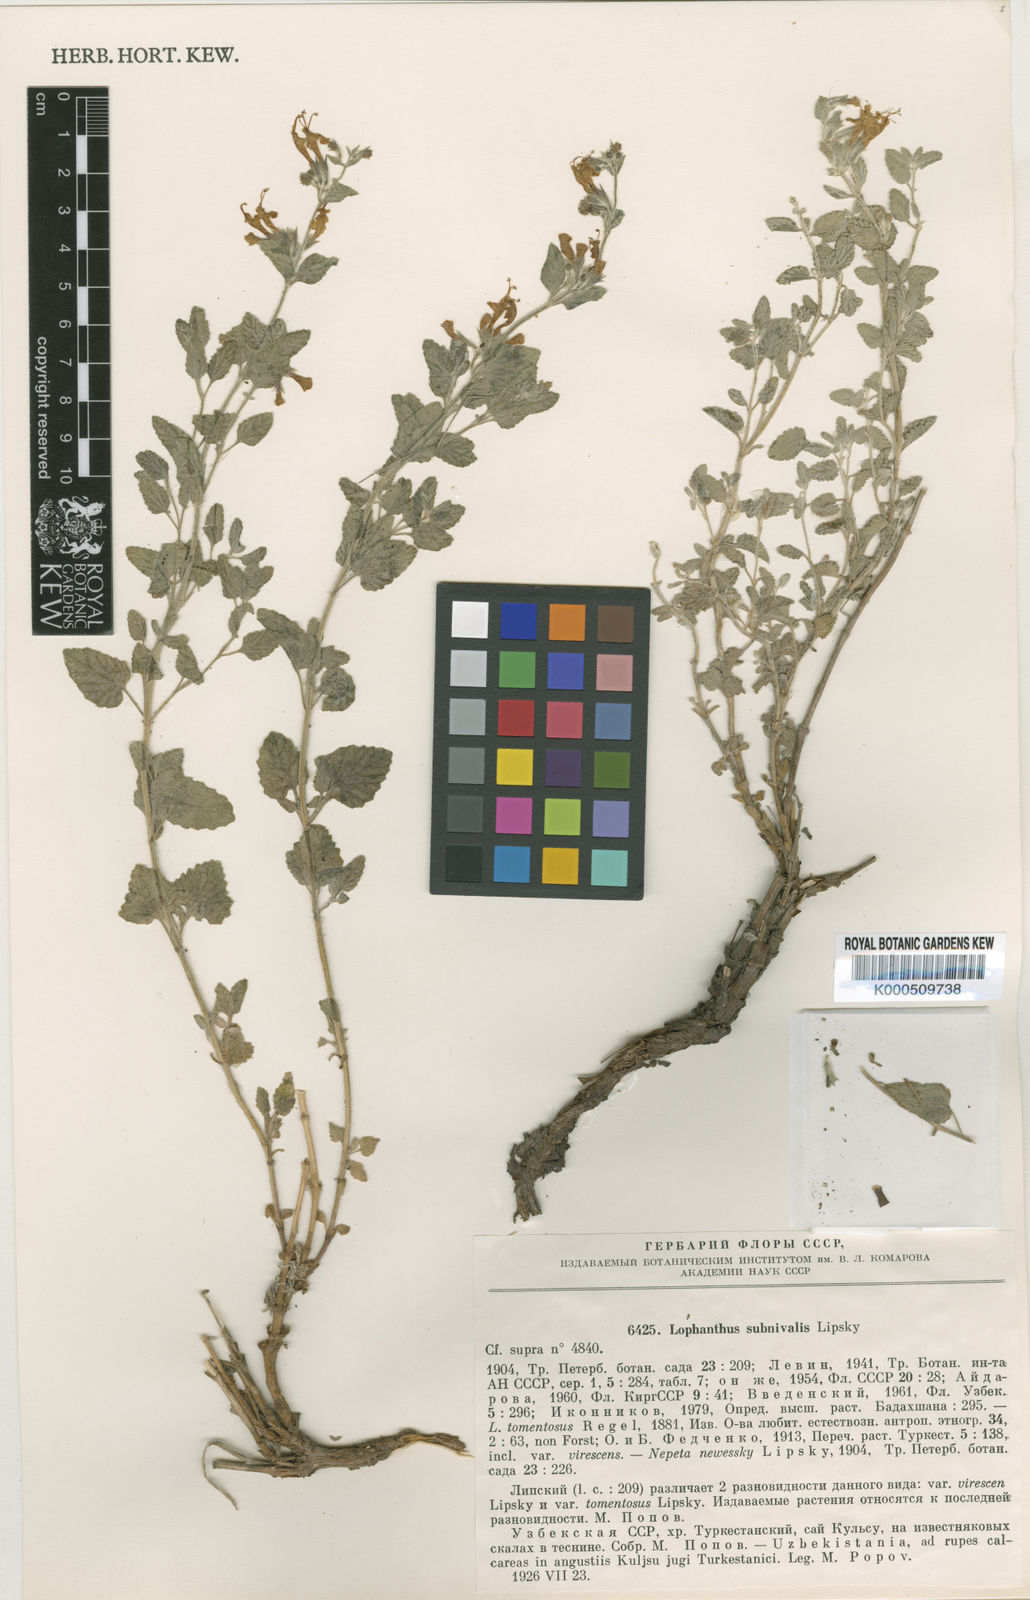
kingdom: Plantae
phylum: Tracheophyta
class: Magnoliopsida
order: Lamiales
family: Lamiaceae
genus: Lophanthus
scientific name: Lophanthus subnivalis
